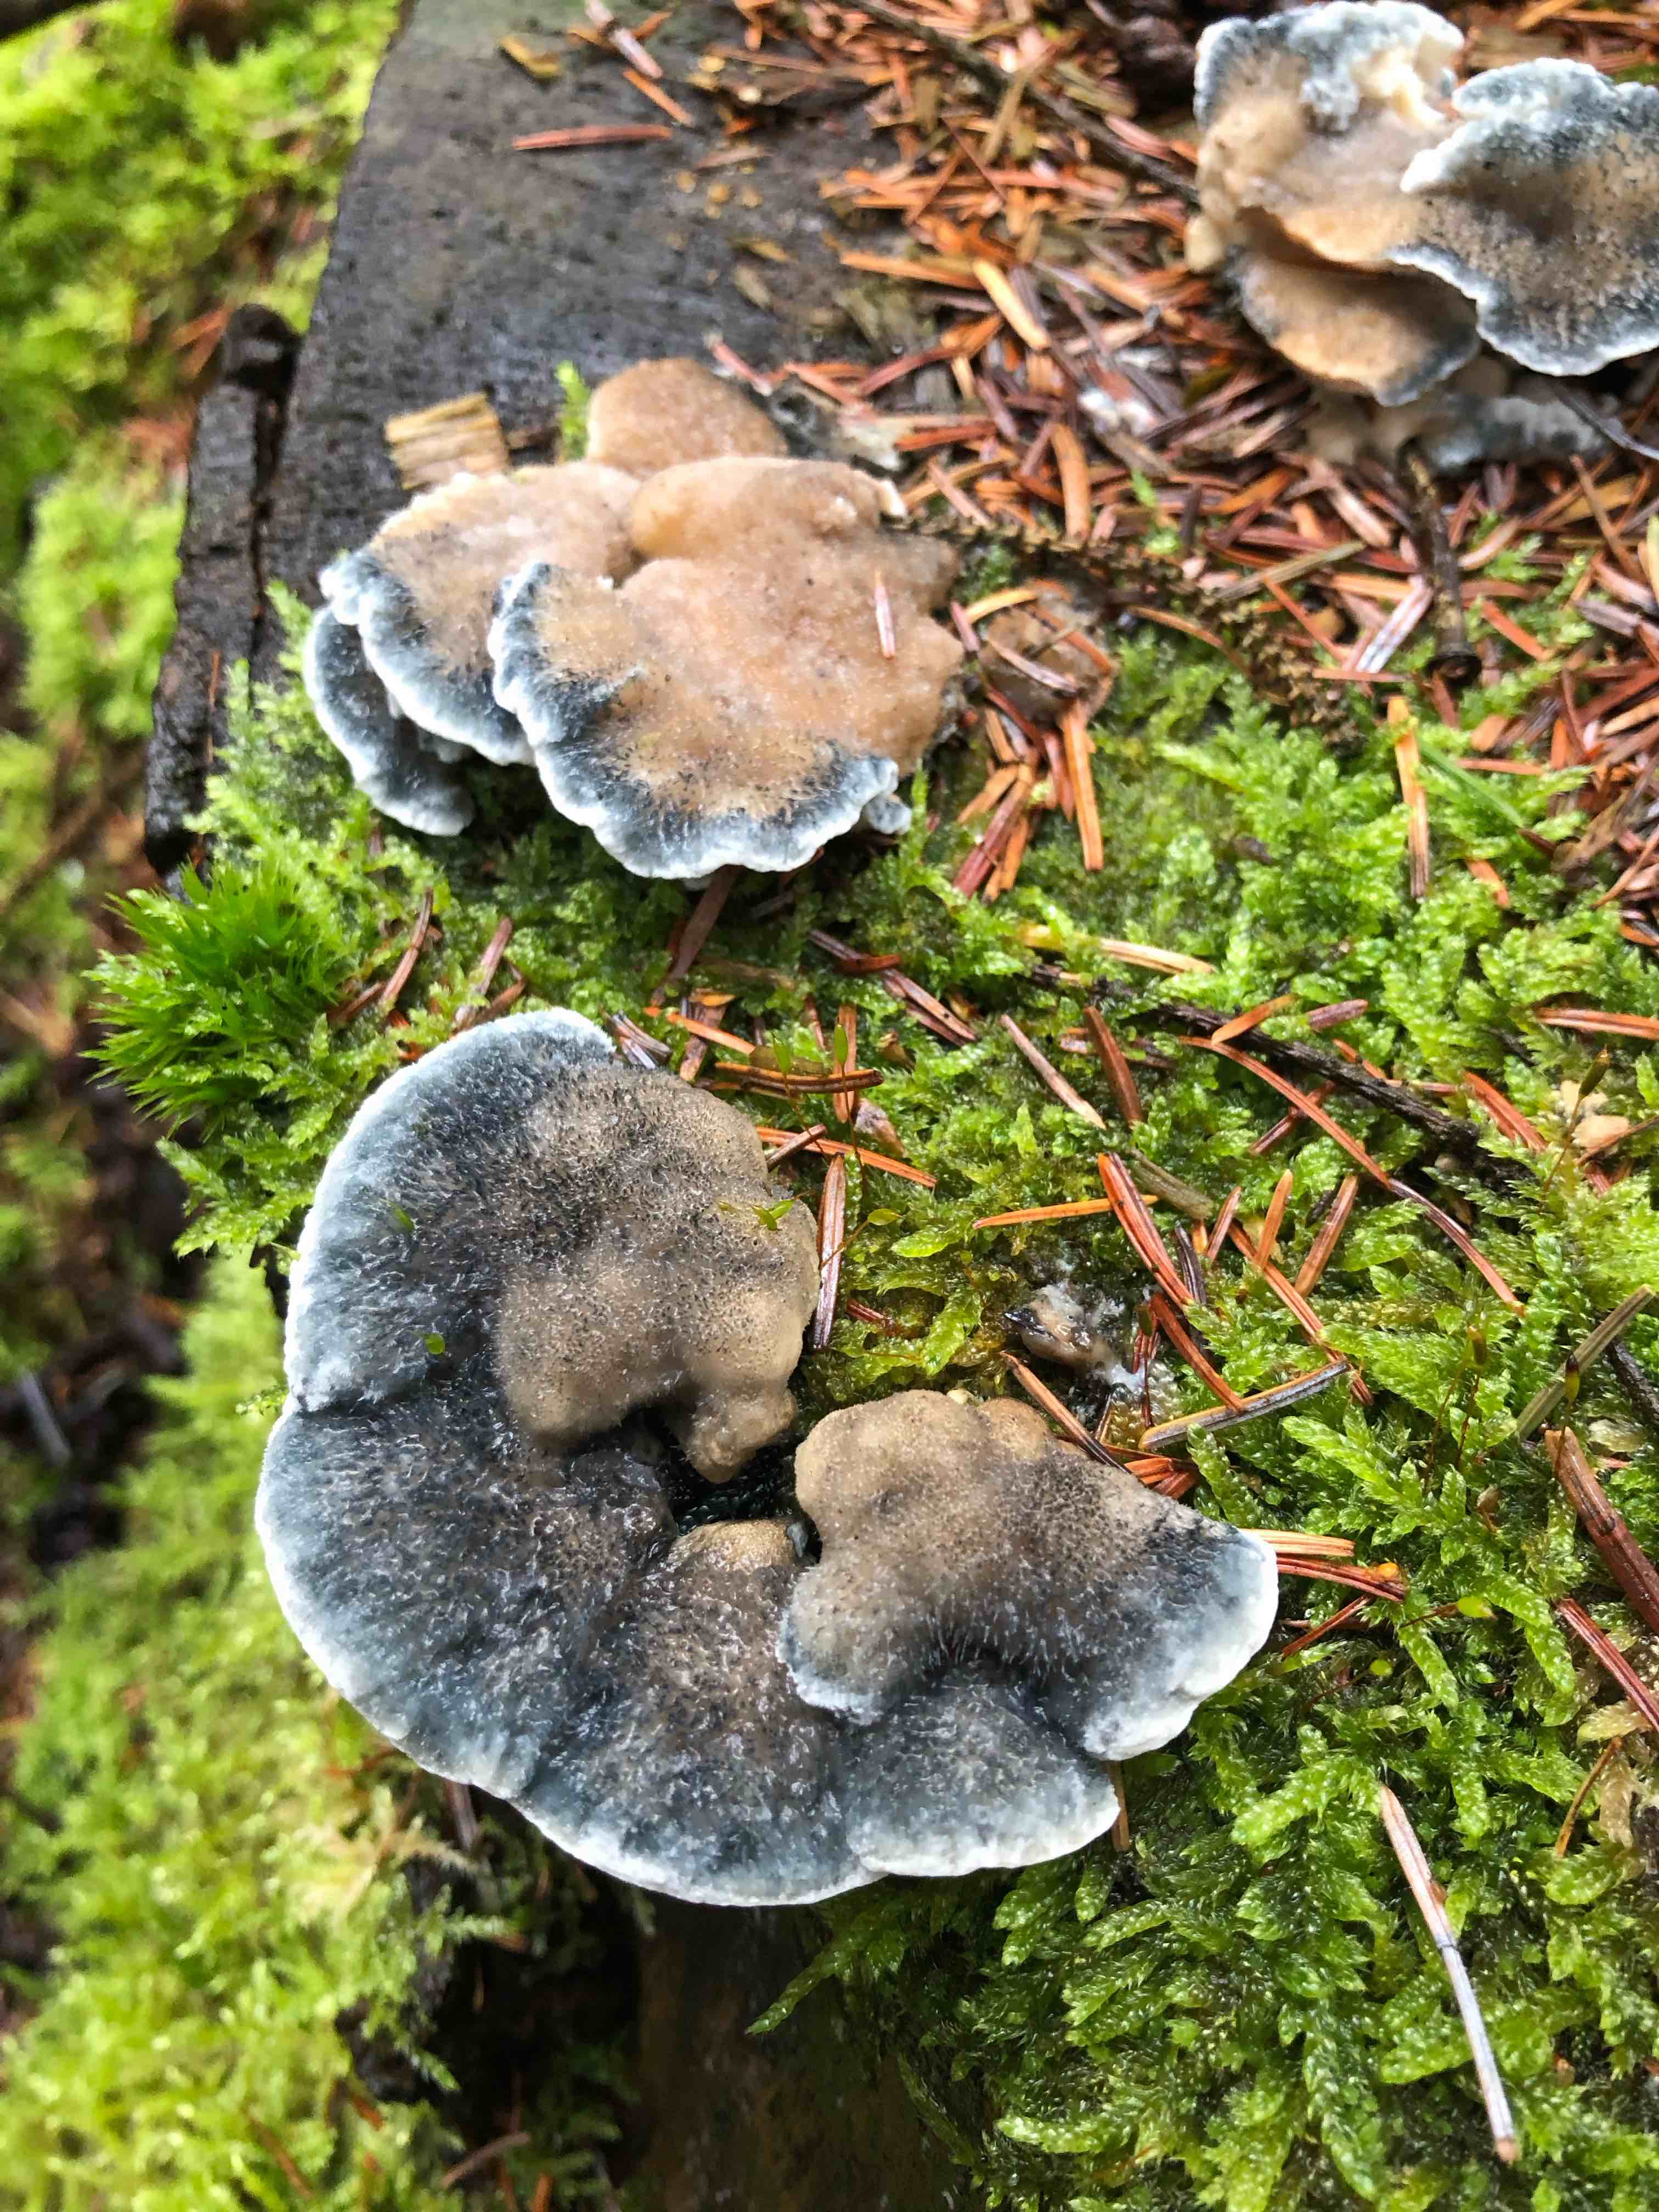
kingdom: Fungi
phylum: Basidiomycota
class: Agaricomycetes
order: Polyporales
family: Polyporaceae
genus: Cyanosporus
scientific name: Cyanosporus caesius
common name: blålig kødporesvamp
